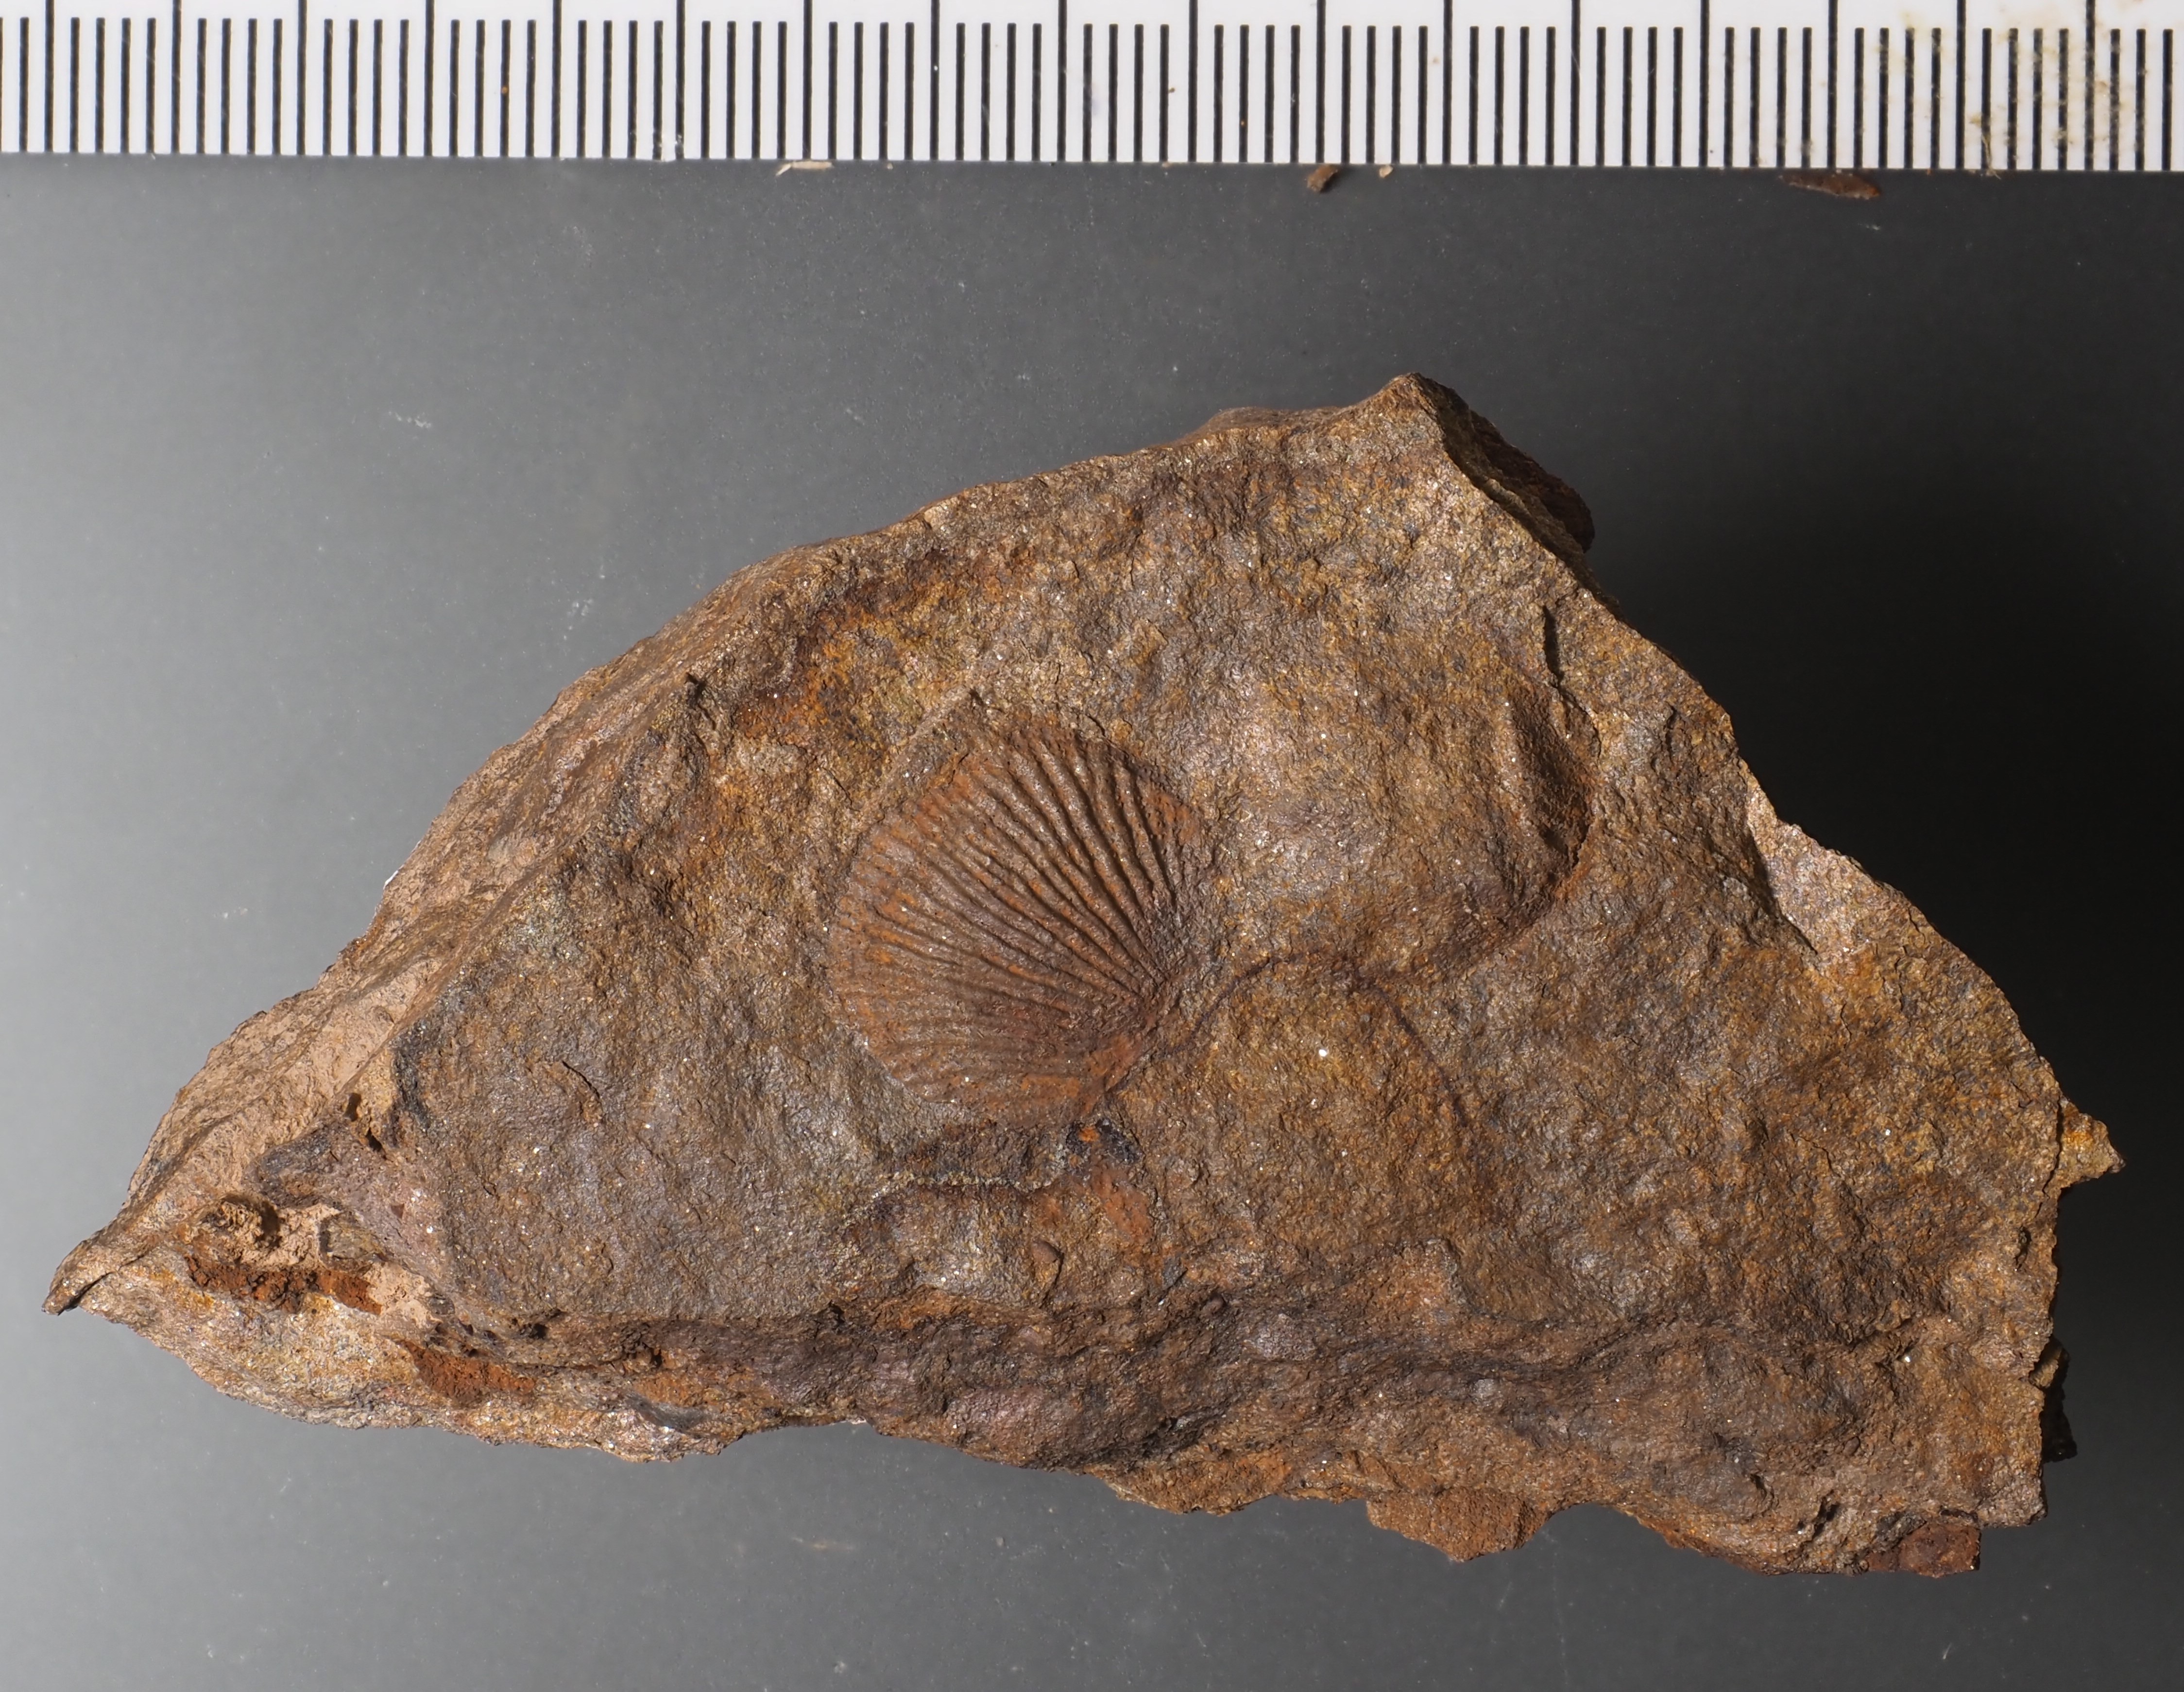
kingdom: Animalia
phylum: Brachiopoda
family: Chonetidae
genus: Plebejochonetes
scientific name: Plebejochonetes
